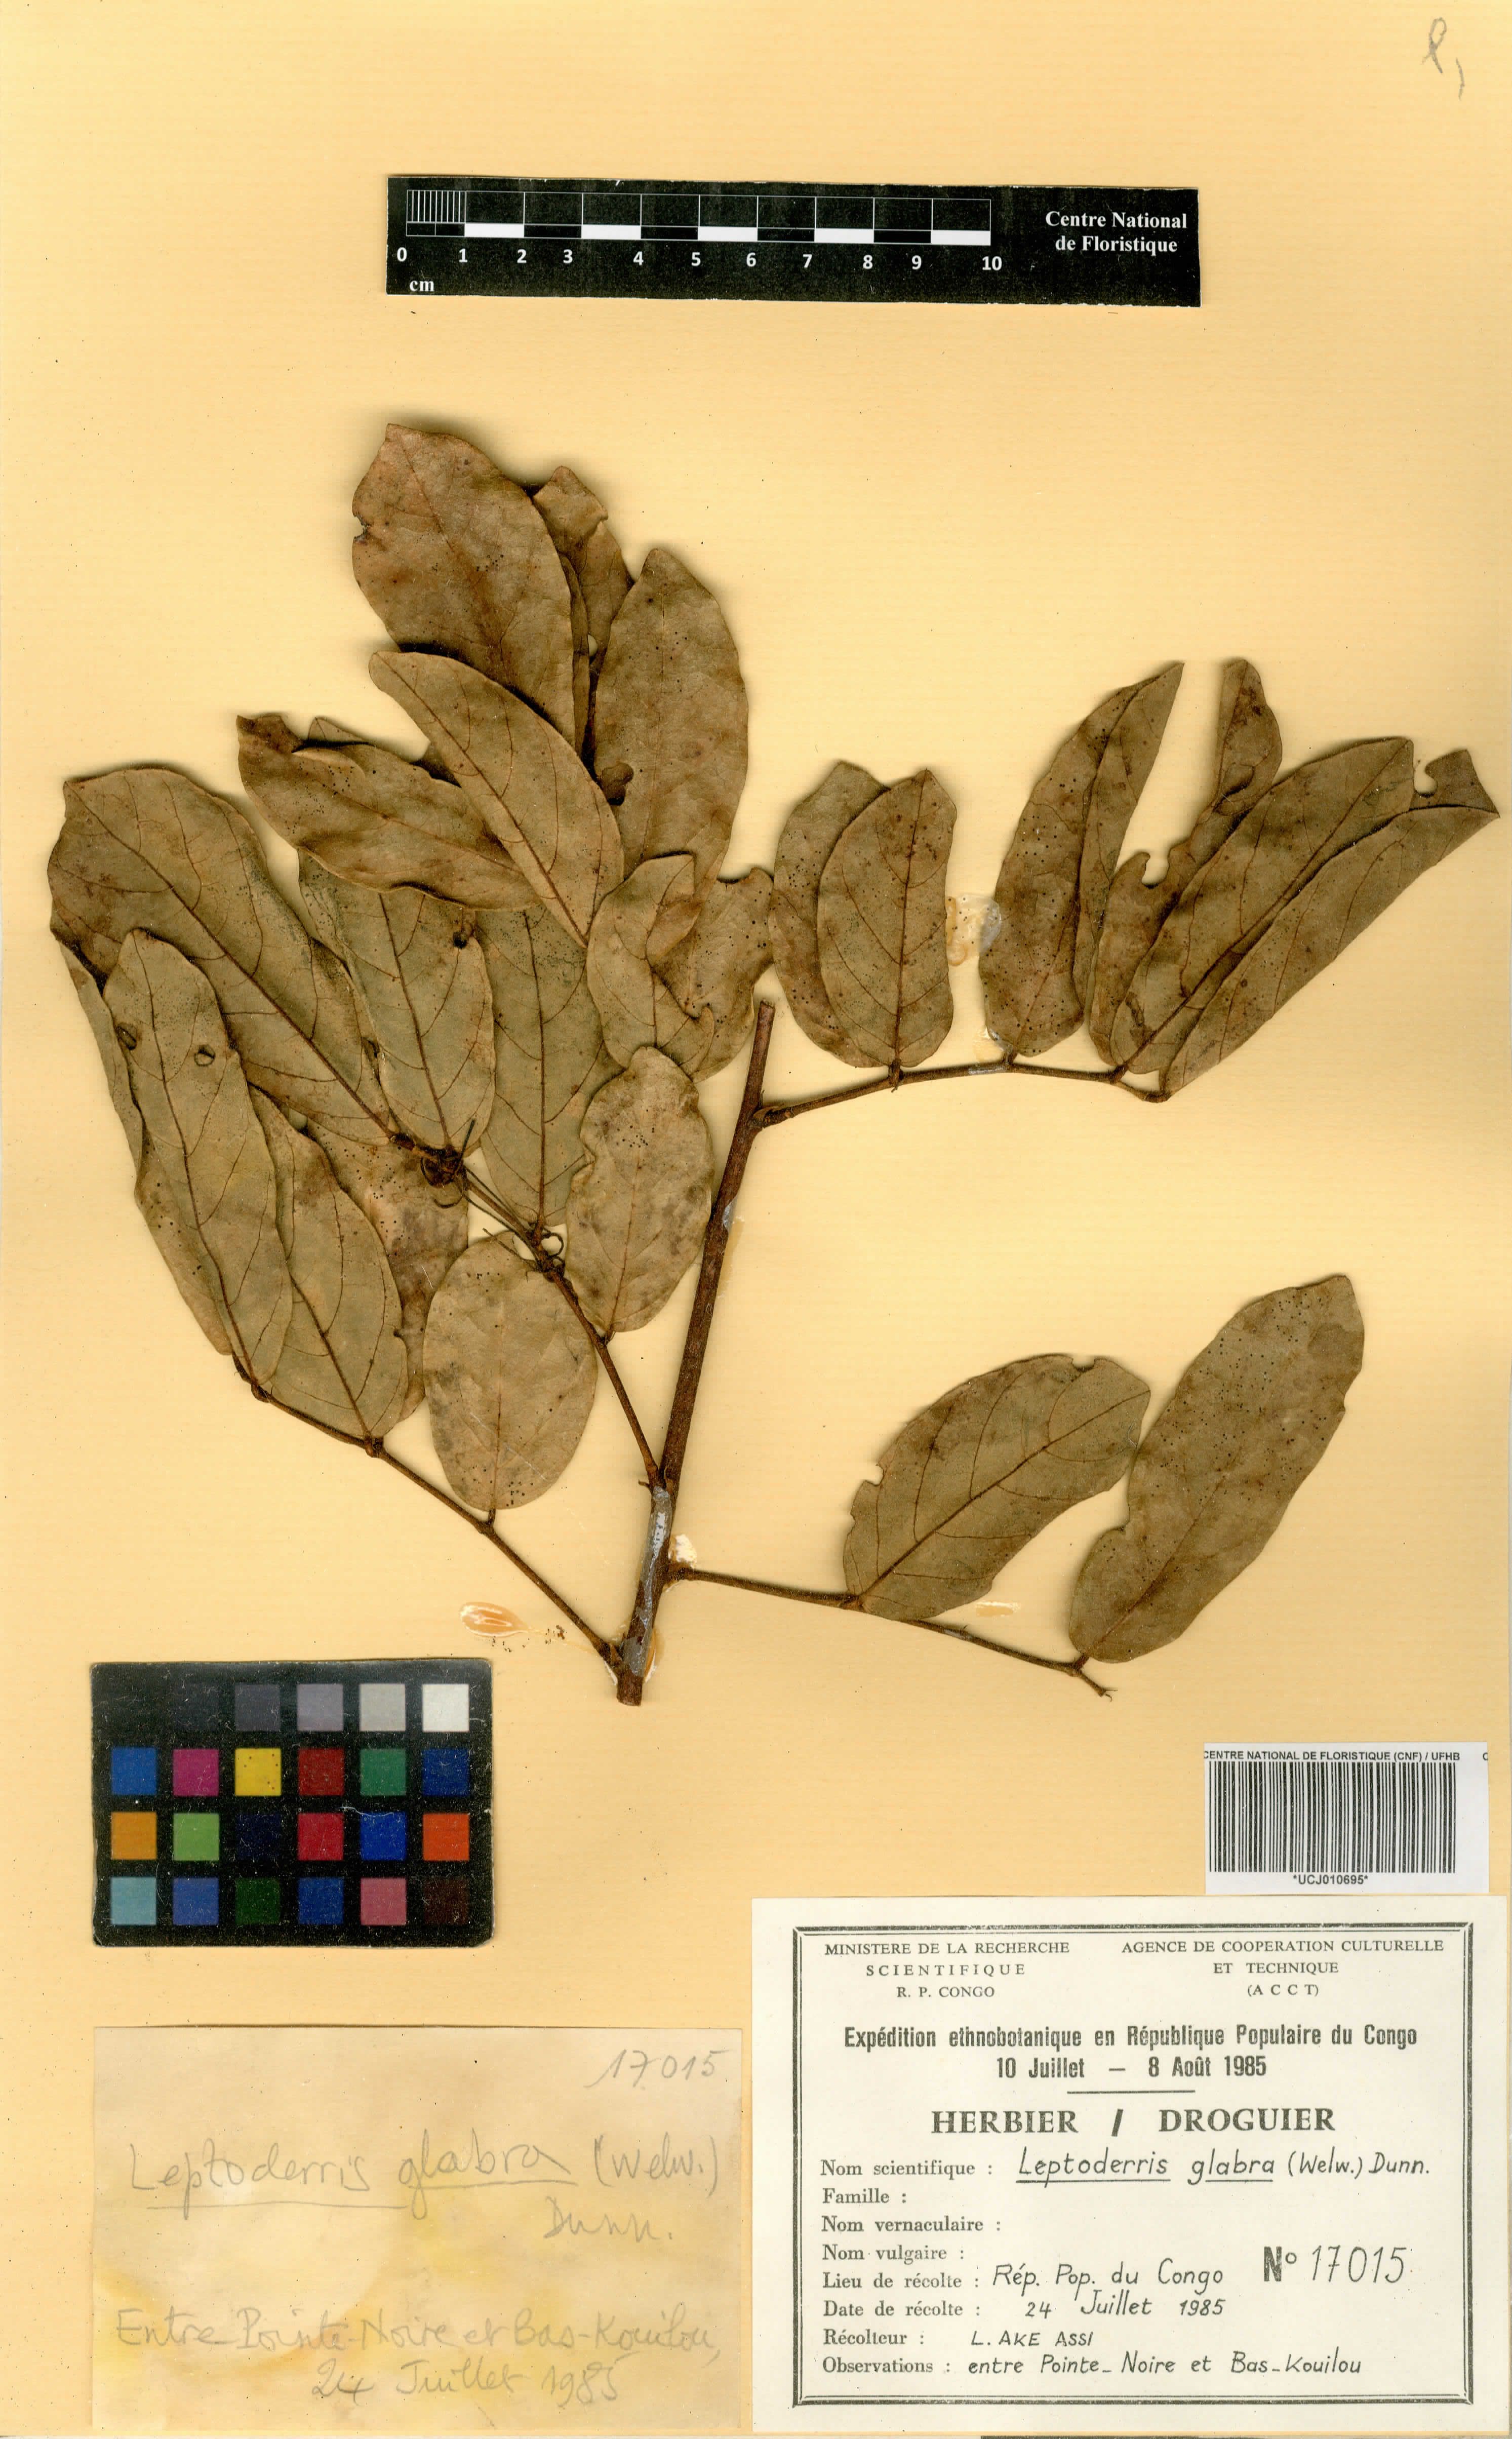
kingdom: Plantae
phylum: Tracheophyta
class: Magnoliopsida
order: Fabales
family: Fabaceae
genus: Leptoderris
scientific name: Leptoderris glabrata
